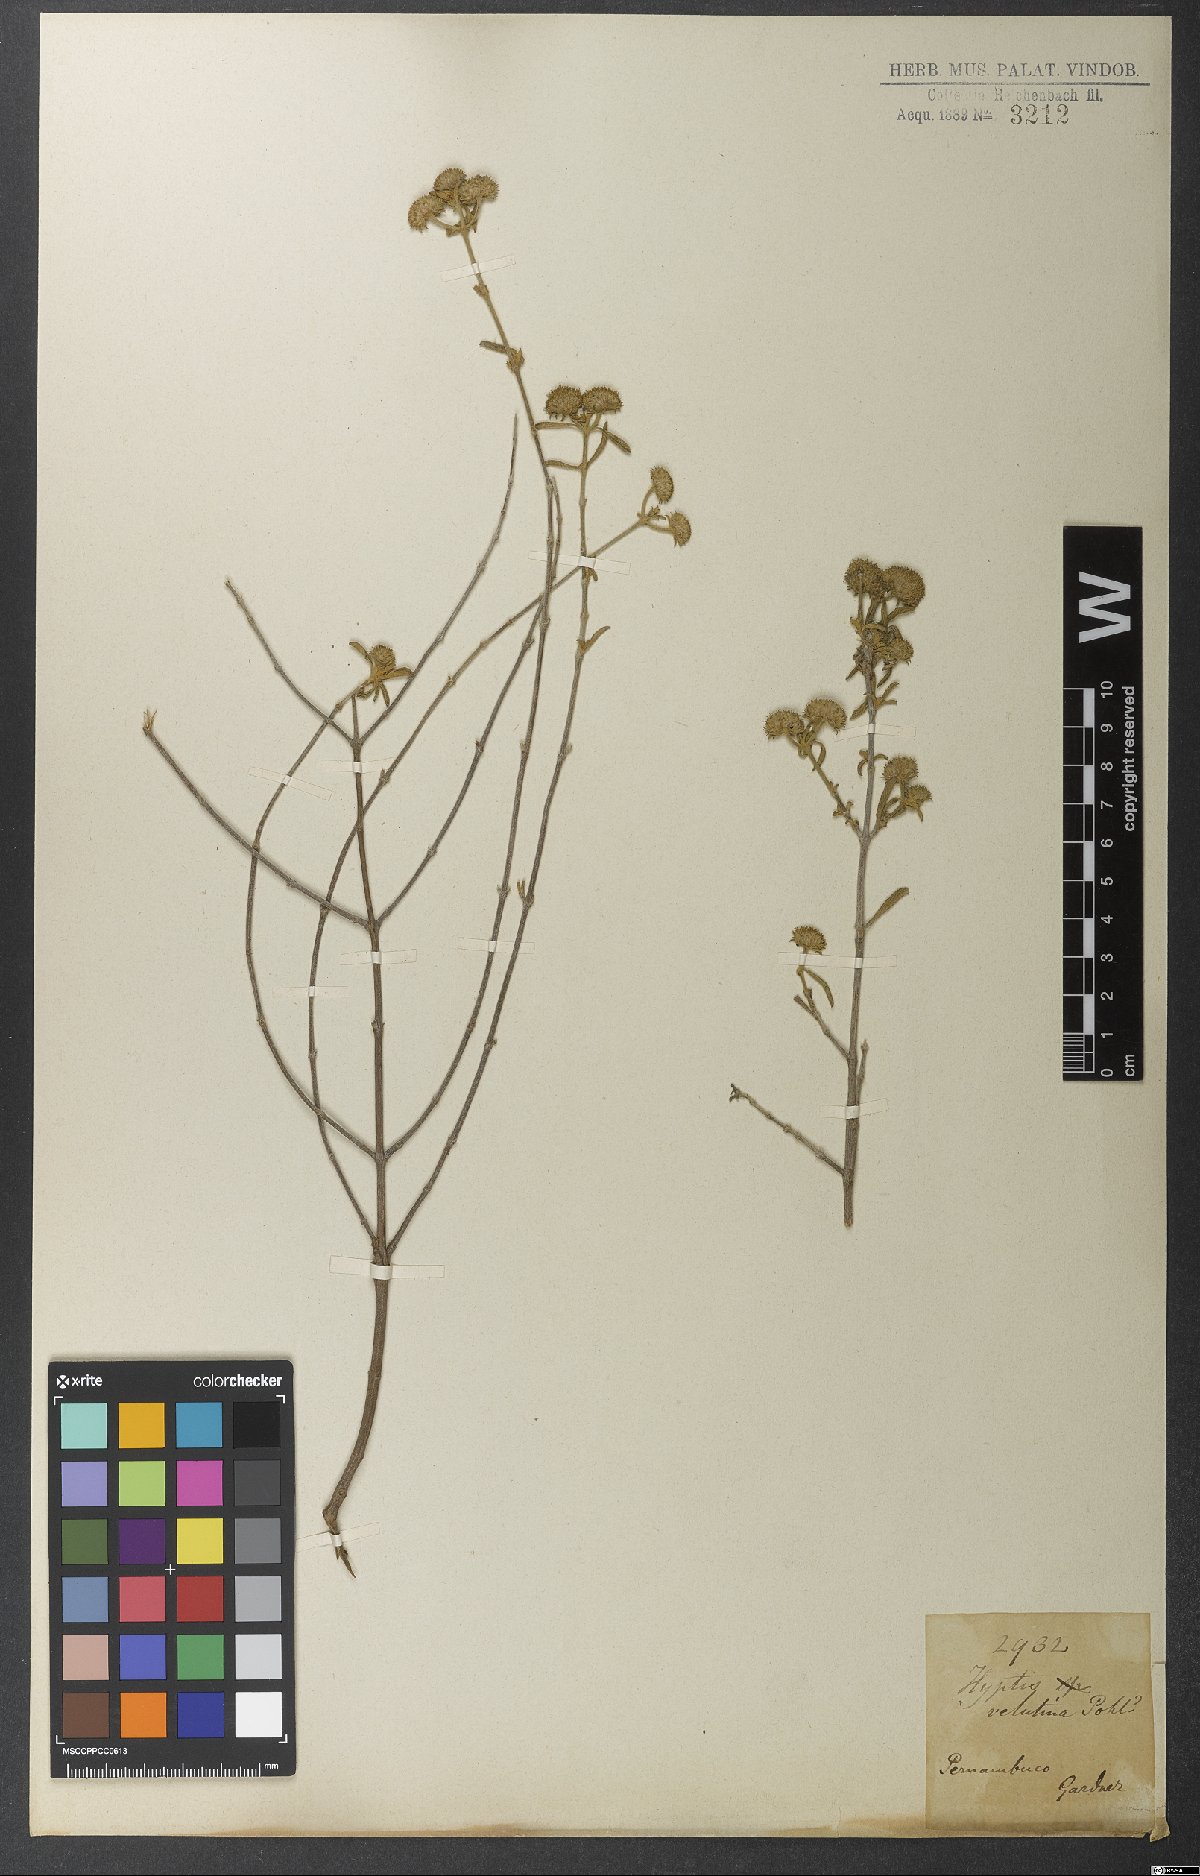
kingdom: Plantae
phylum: Tracheophyta
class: Magnoliopsida
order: Lamiales
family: Lamiaceae
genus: Hyptis
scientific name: Hyptis velutina
